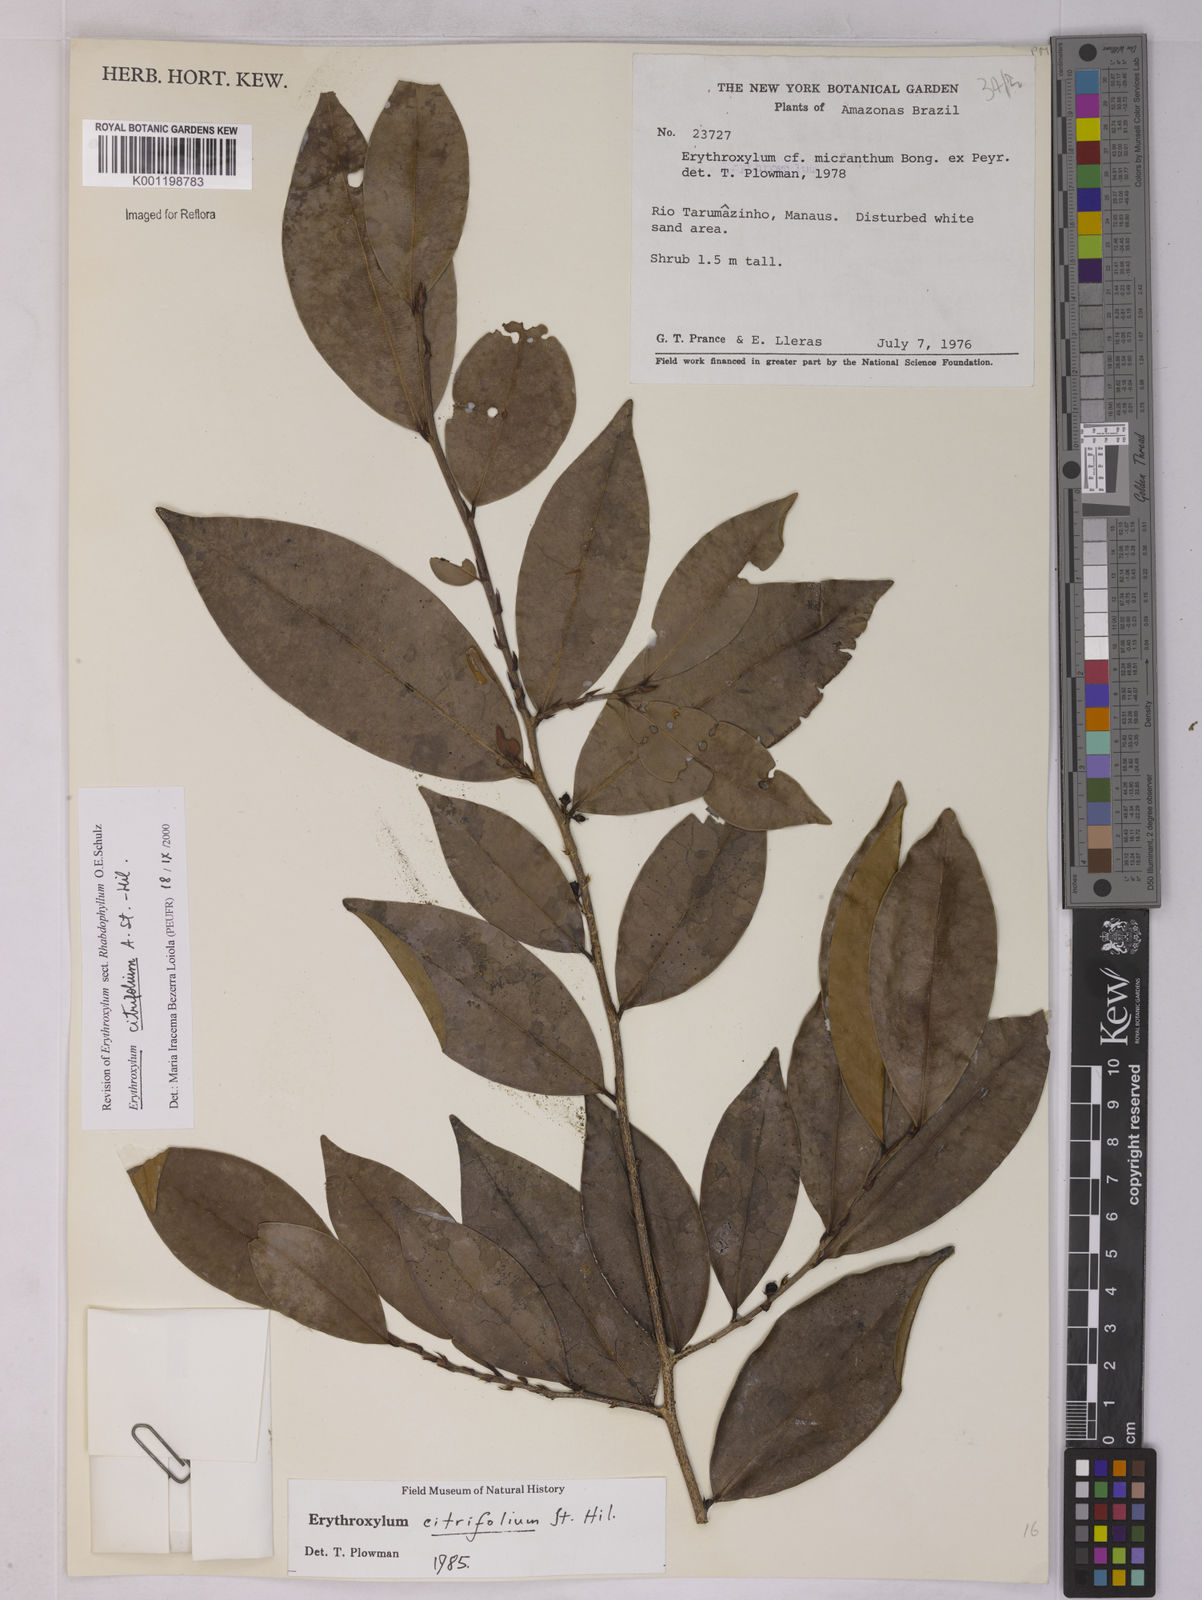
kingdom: Plantae
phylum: Tracheophyta
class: Magnoliopsida
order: Malpighiales
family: Erythroxylaceae
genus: Erythroxylum
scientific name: Erythroxylum citrifolium
